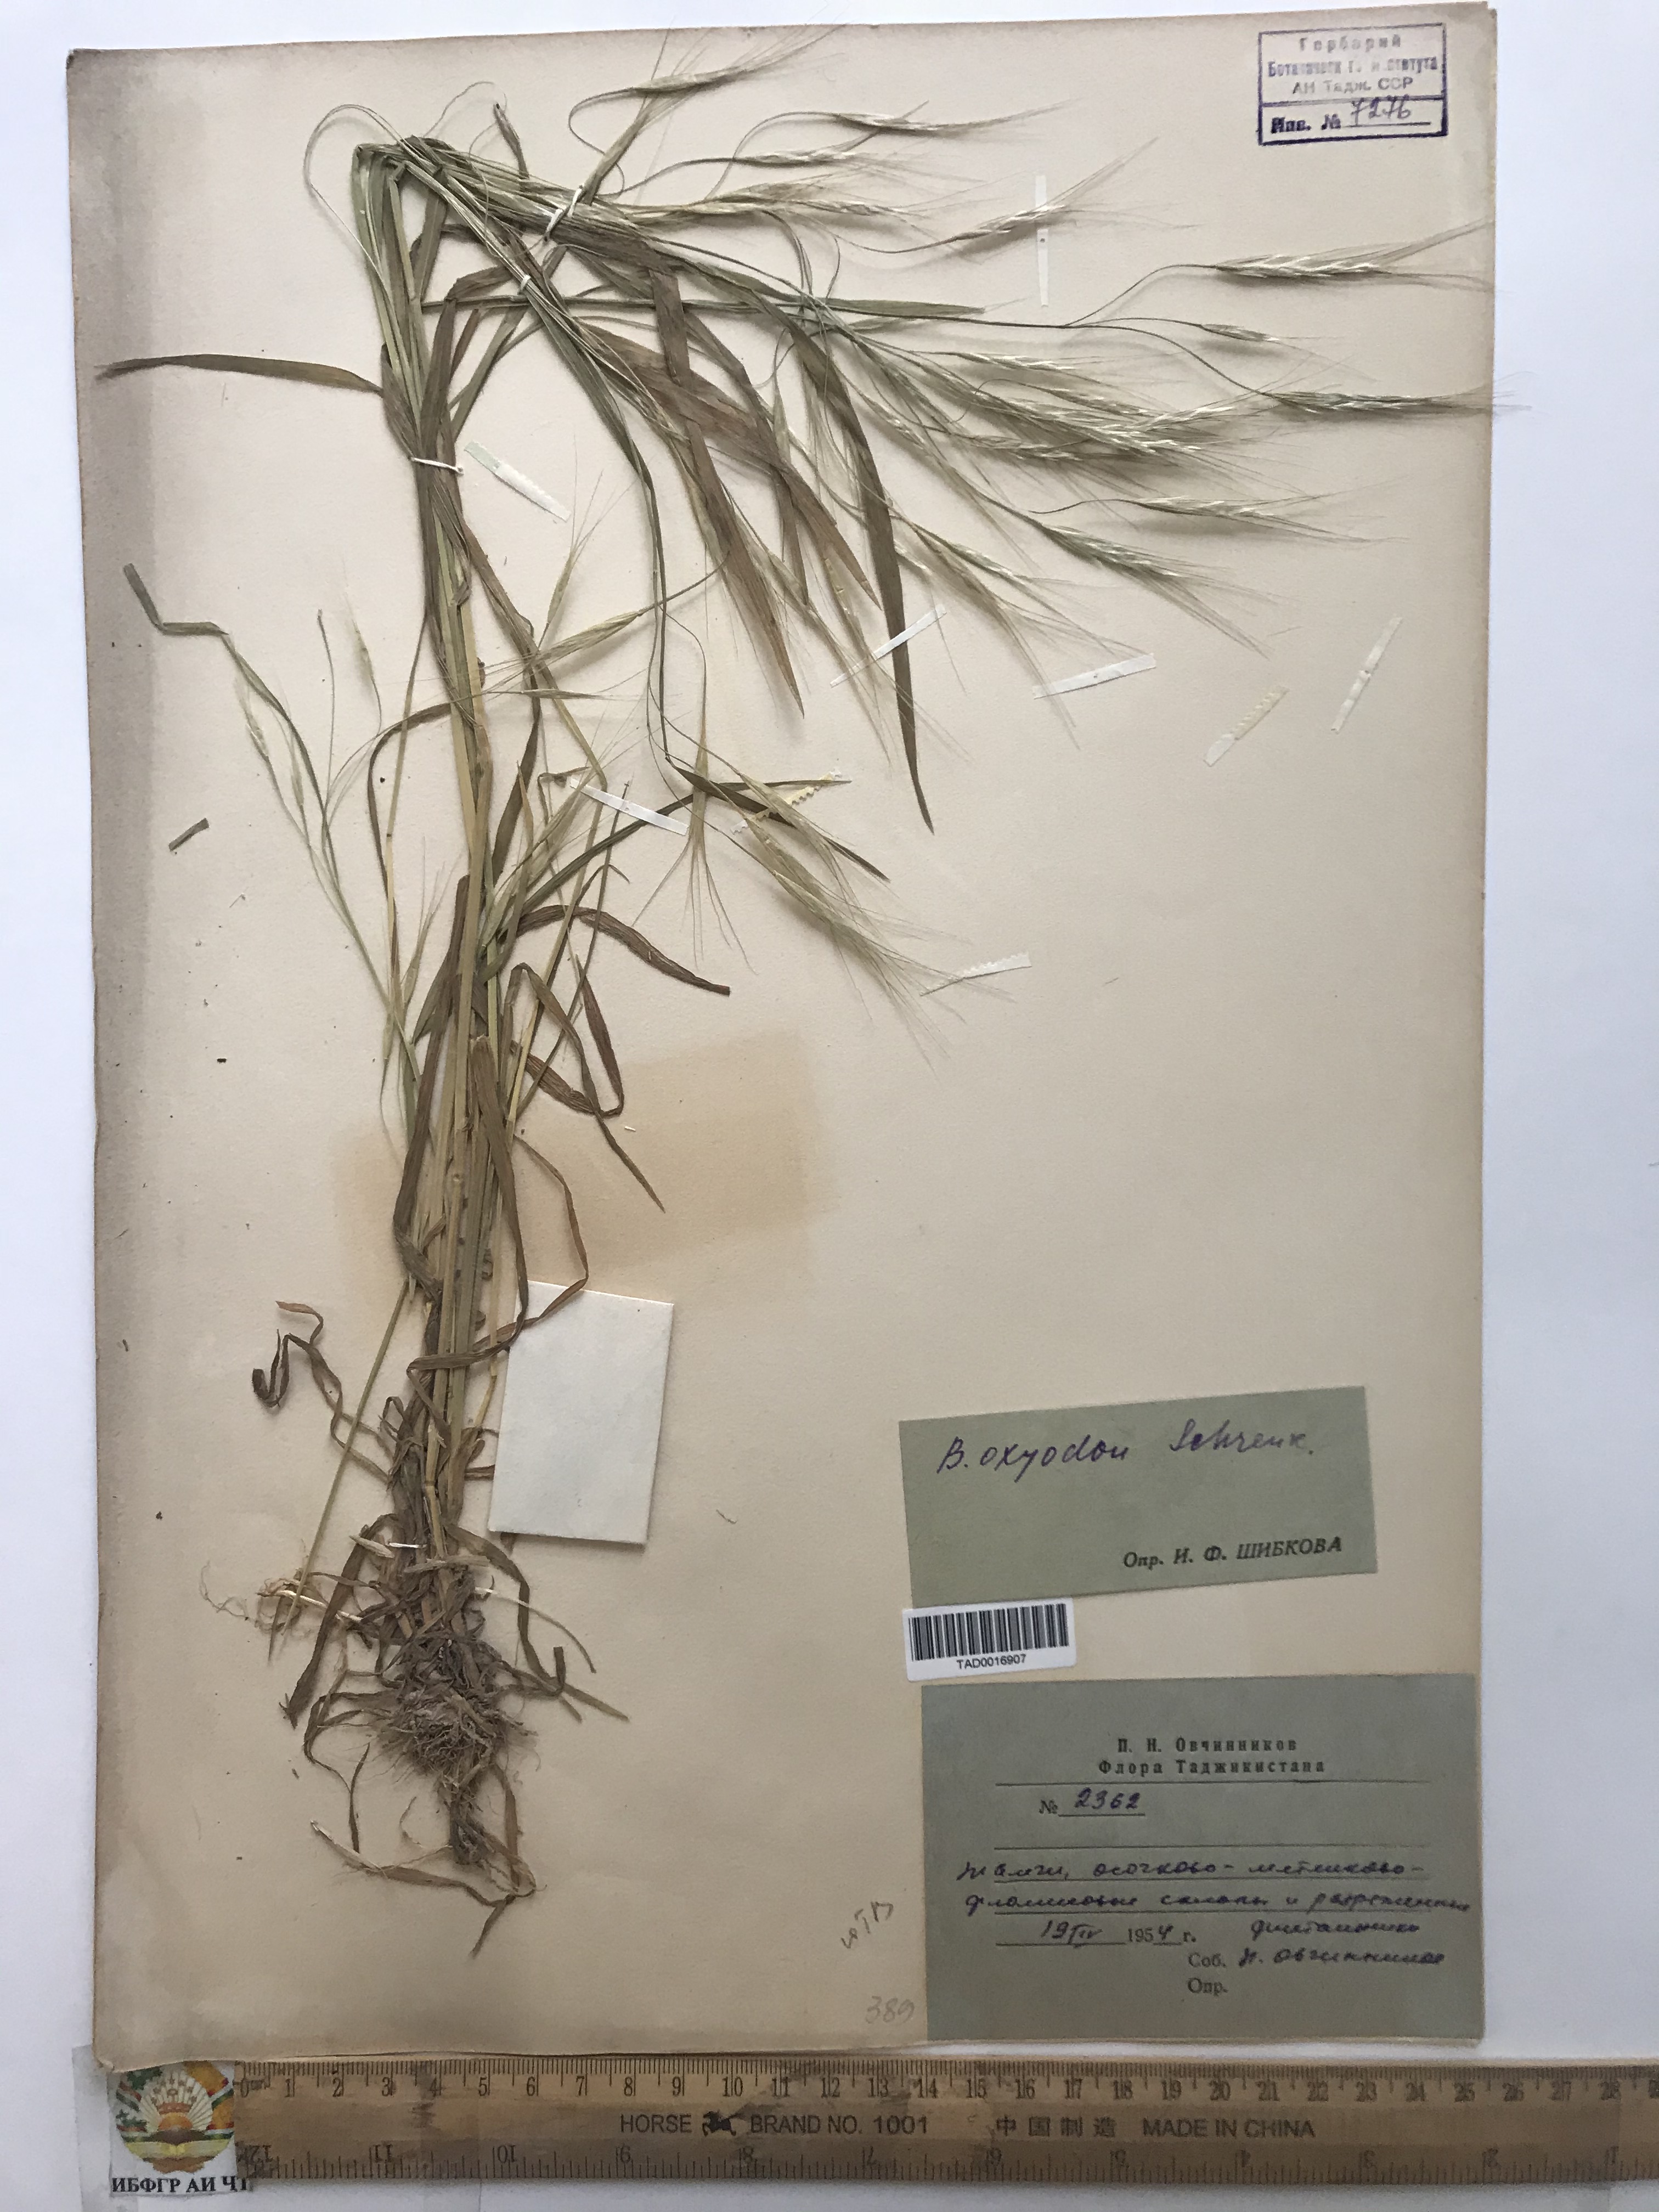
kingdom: Plantae
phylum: Tracheophyta
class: Liliopsida
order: Poales
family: Poaceae
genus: Bromus
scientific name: Bromus oxyodon
